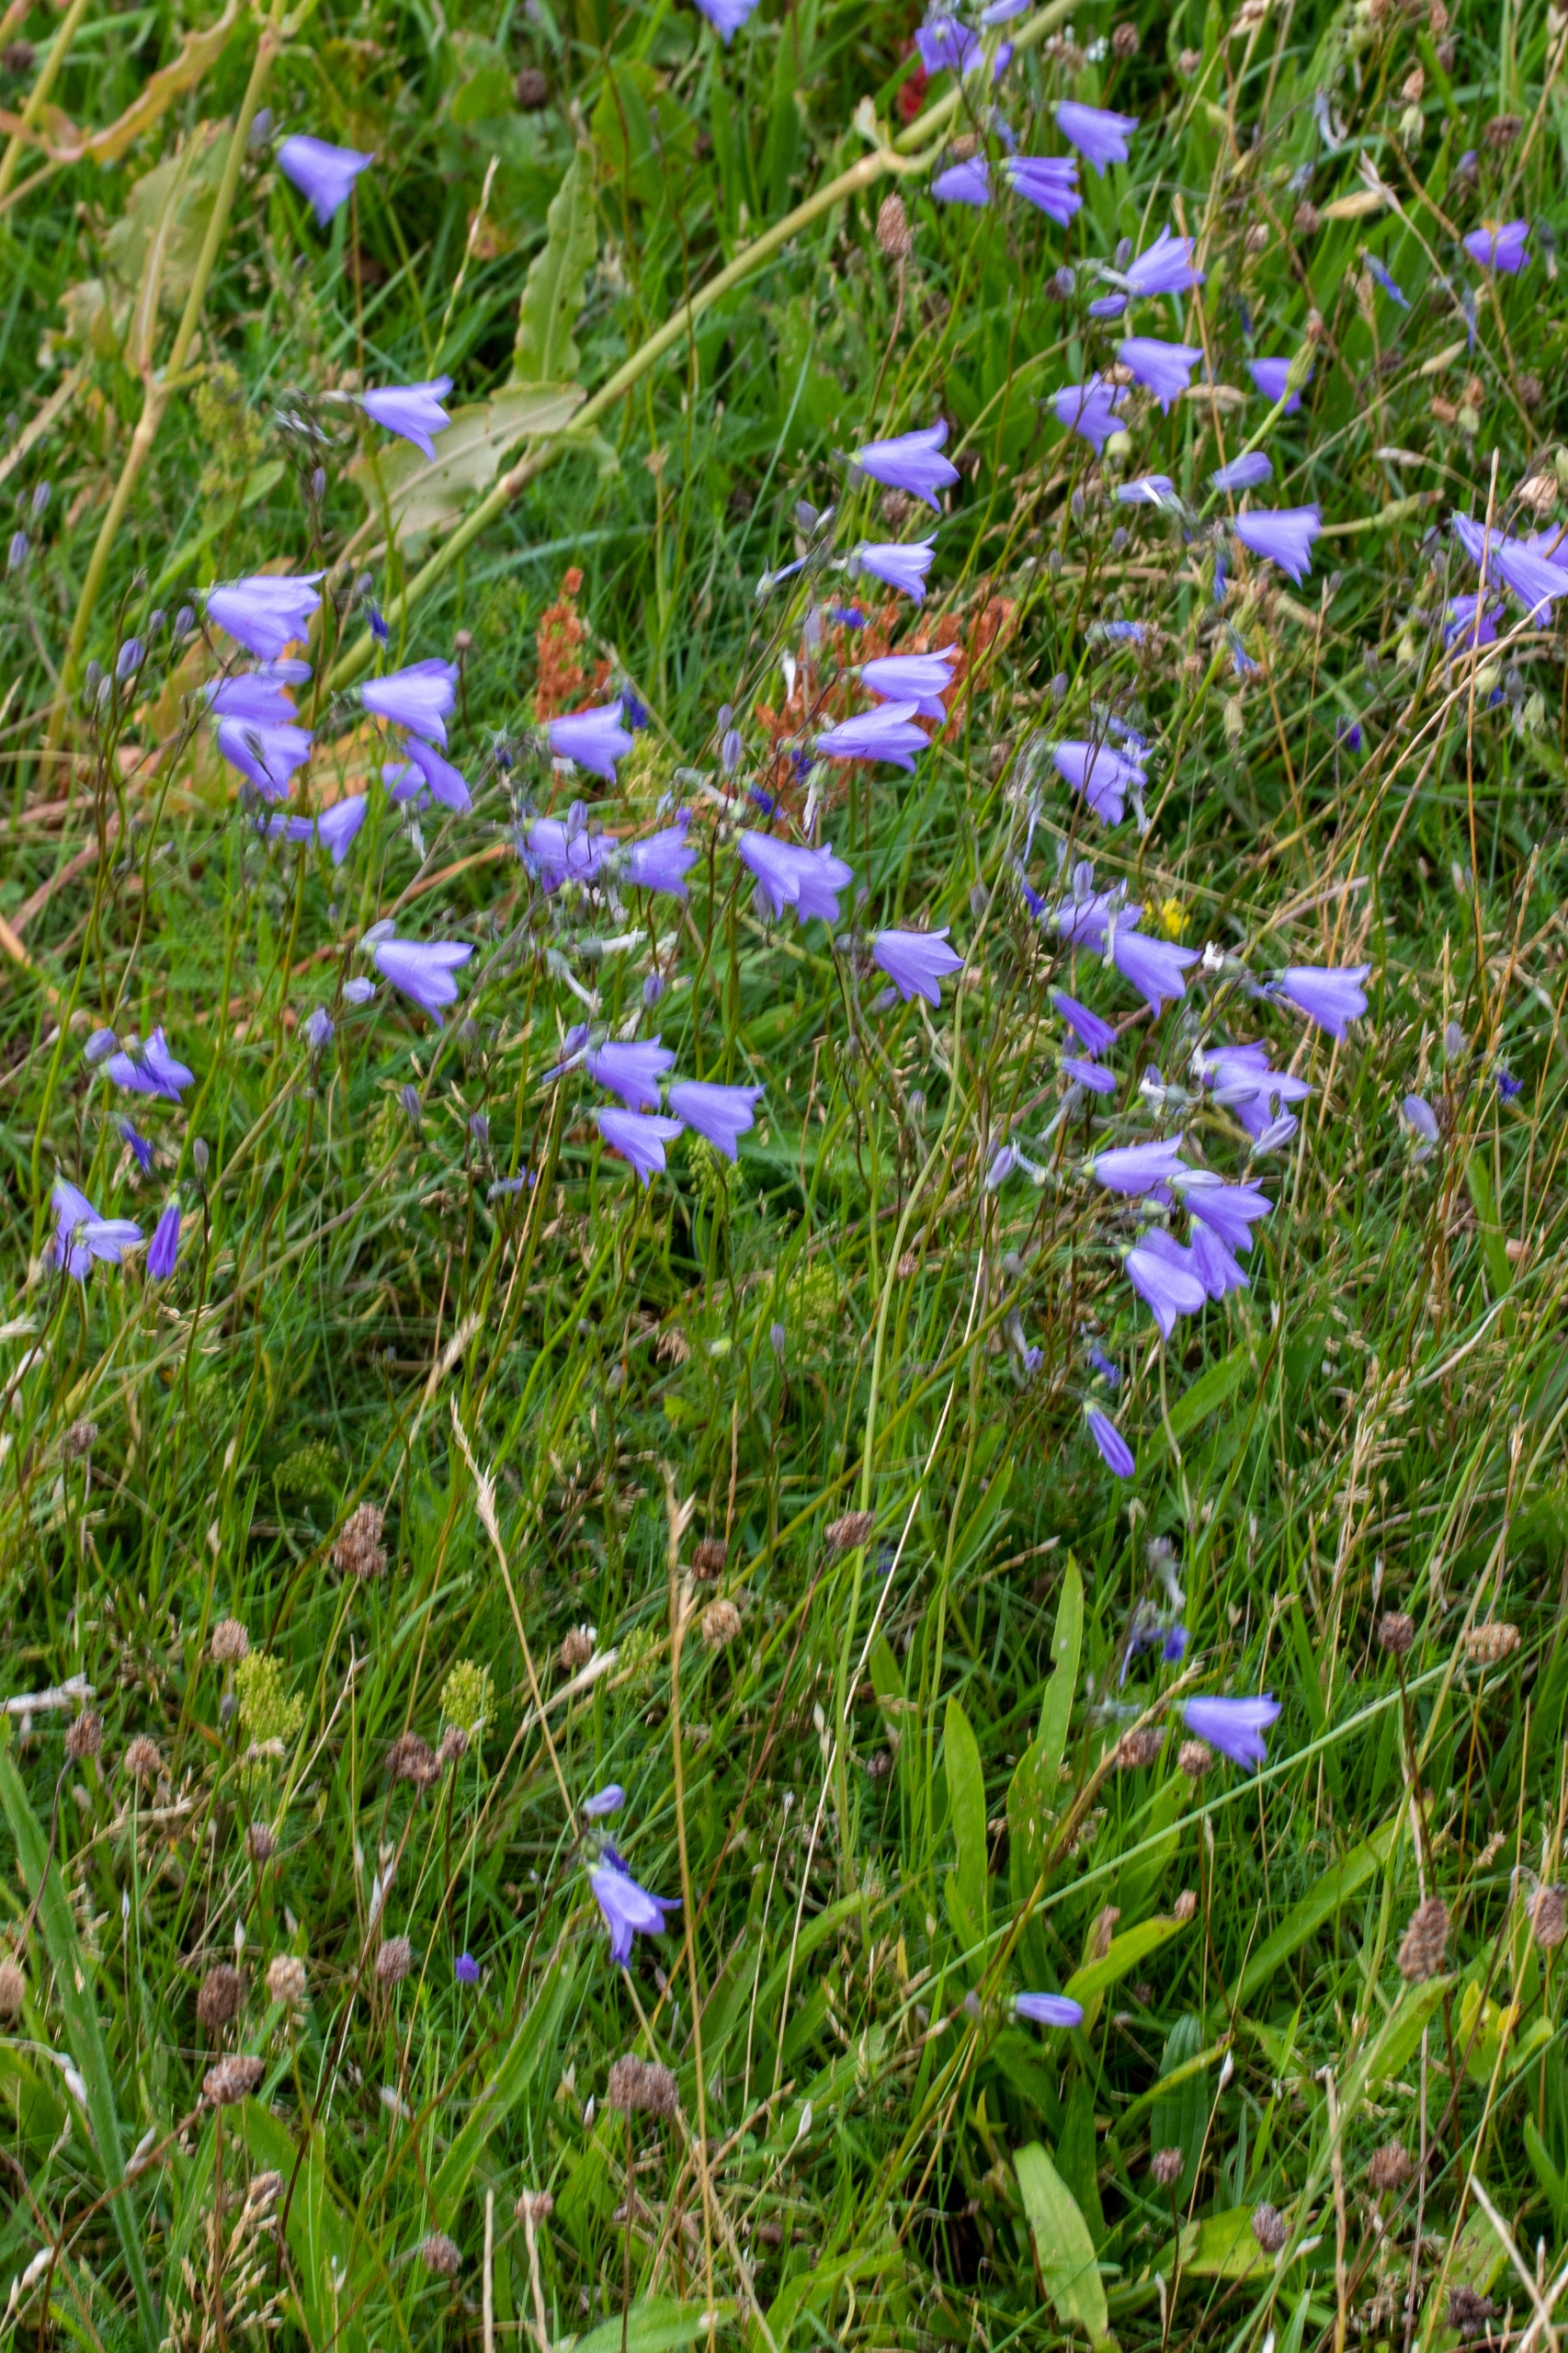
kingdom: Plantae
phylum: Tracheophyta
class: Magnoliopsida
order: Asterales
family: Campanulaceae
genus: Campanula
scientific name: Campanula rotundifolia
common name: Liden klokke
